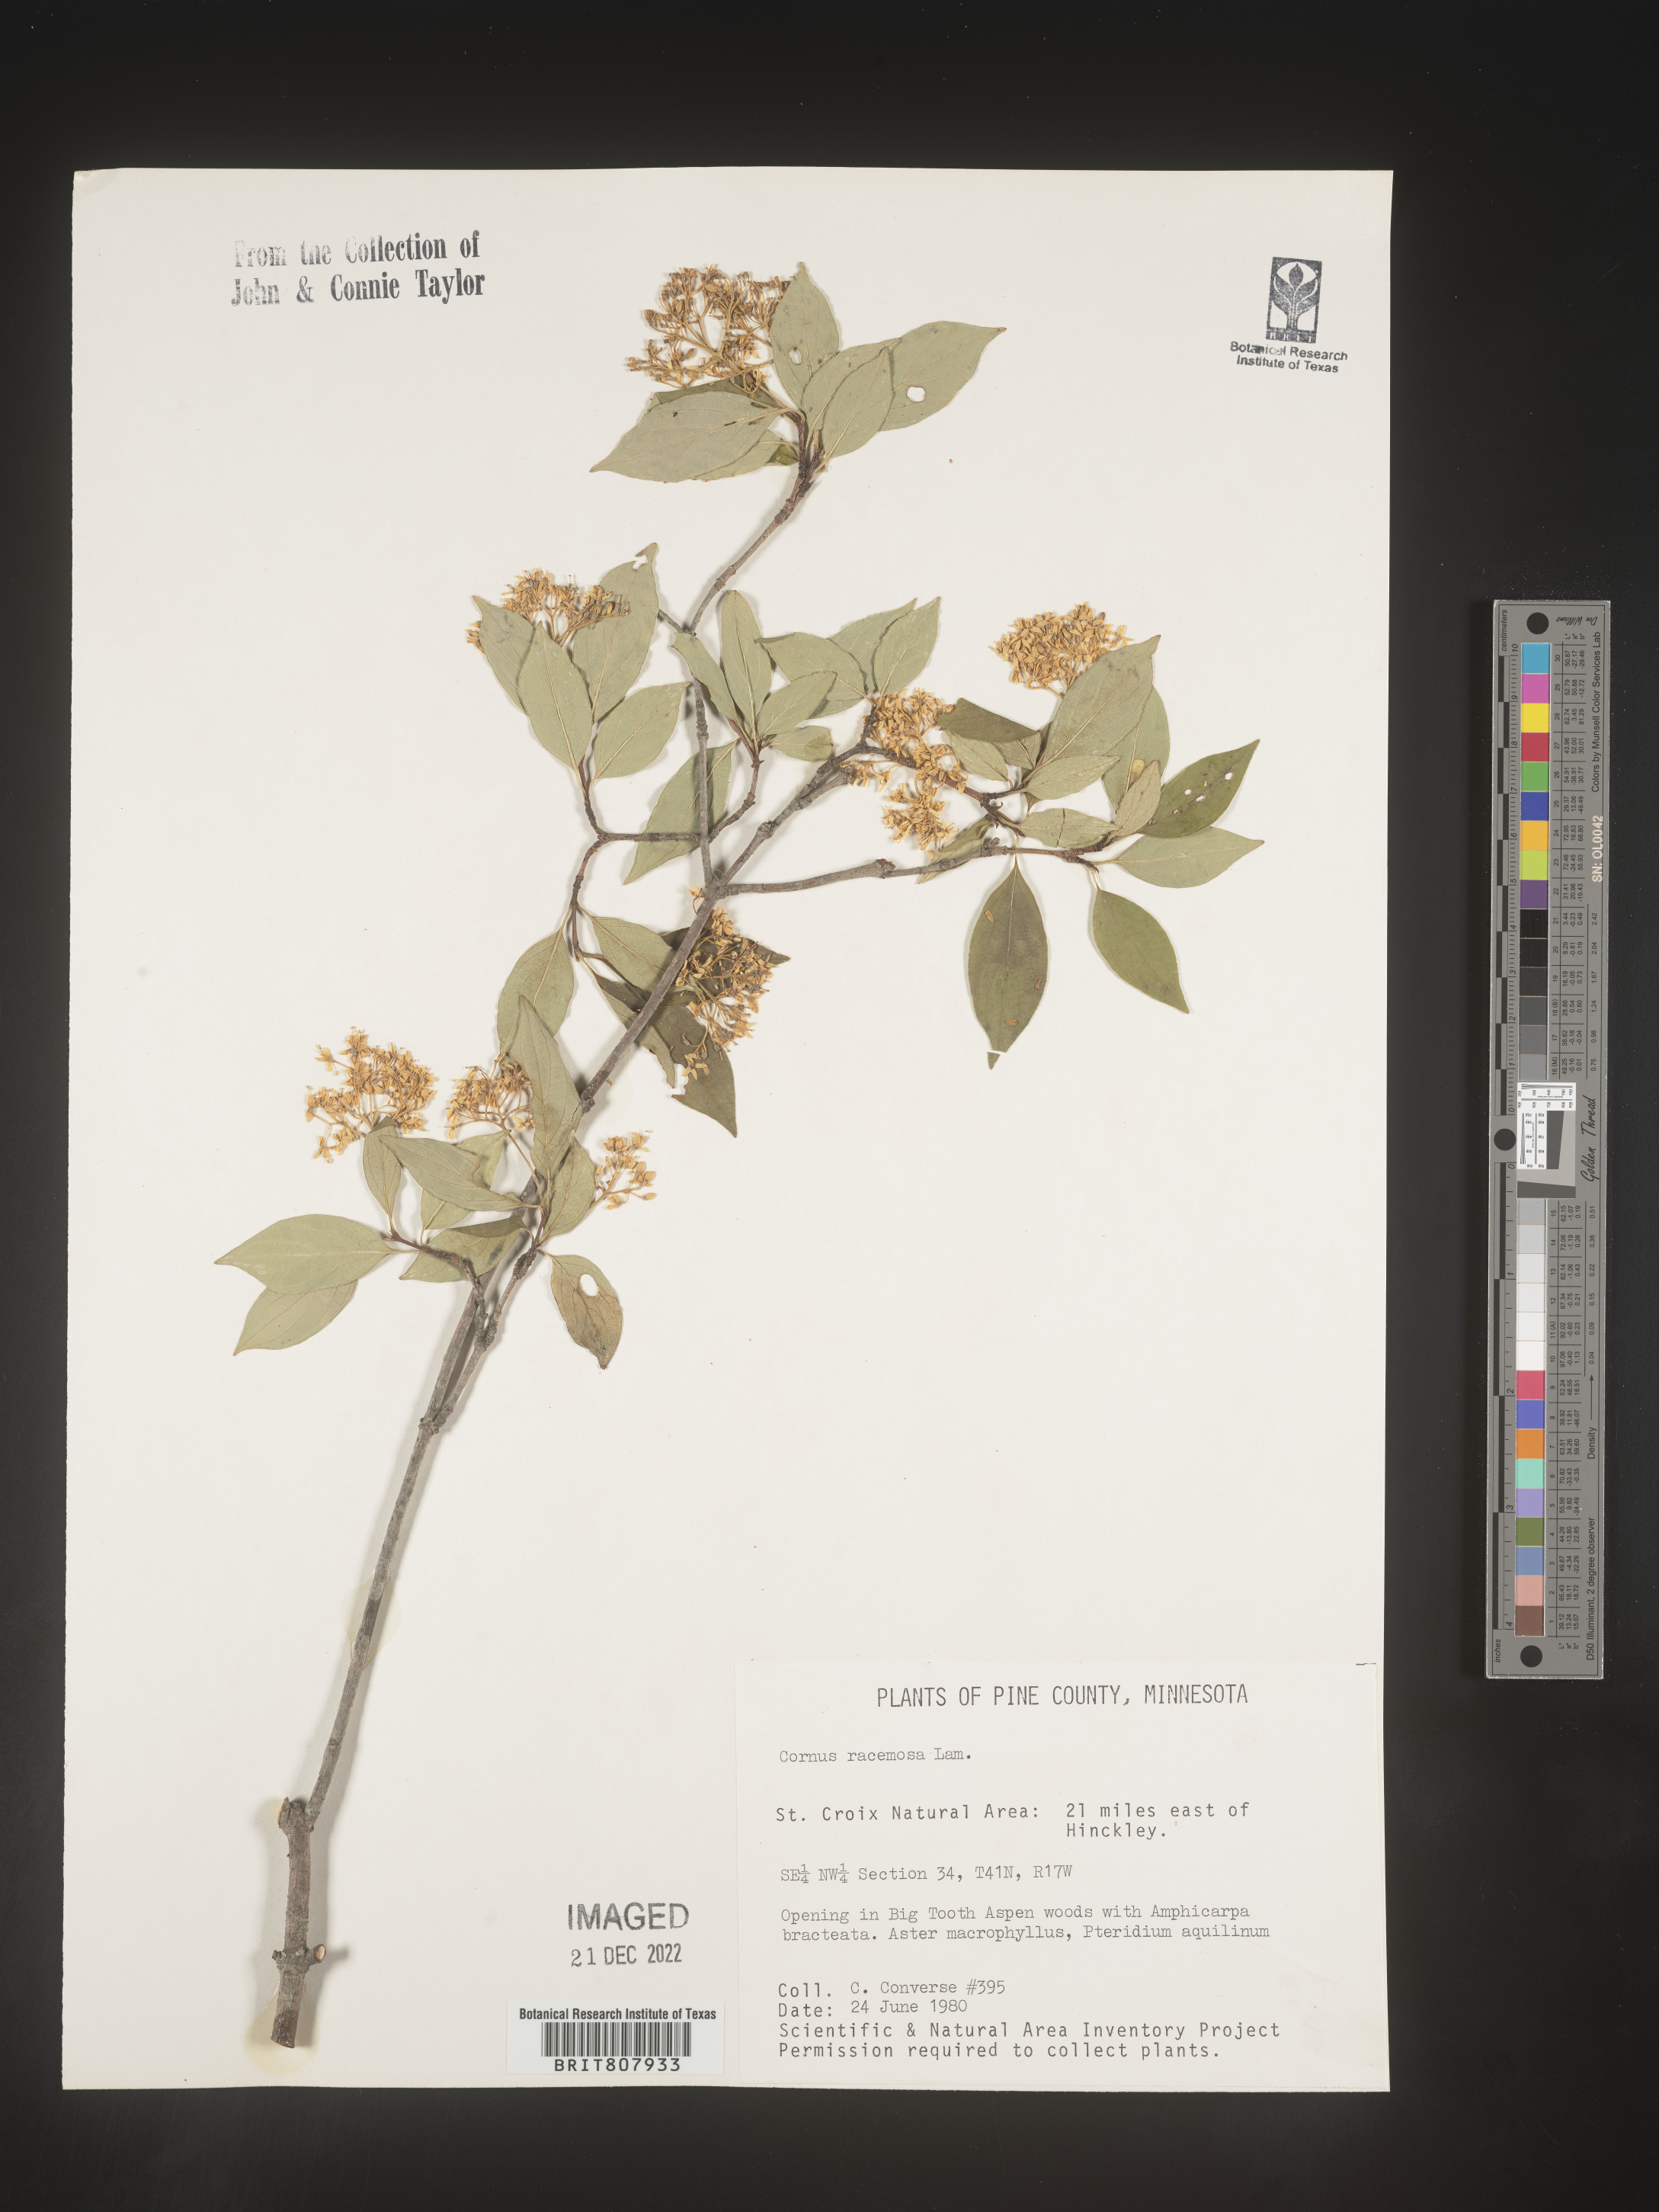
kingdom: Plantae
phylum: Tracheophyta
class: Magnoliopsida
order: Cornales
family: Cornaceae
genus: Cornus
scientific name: Cornus racemosa
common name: Panicled dogwood
